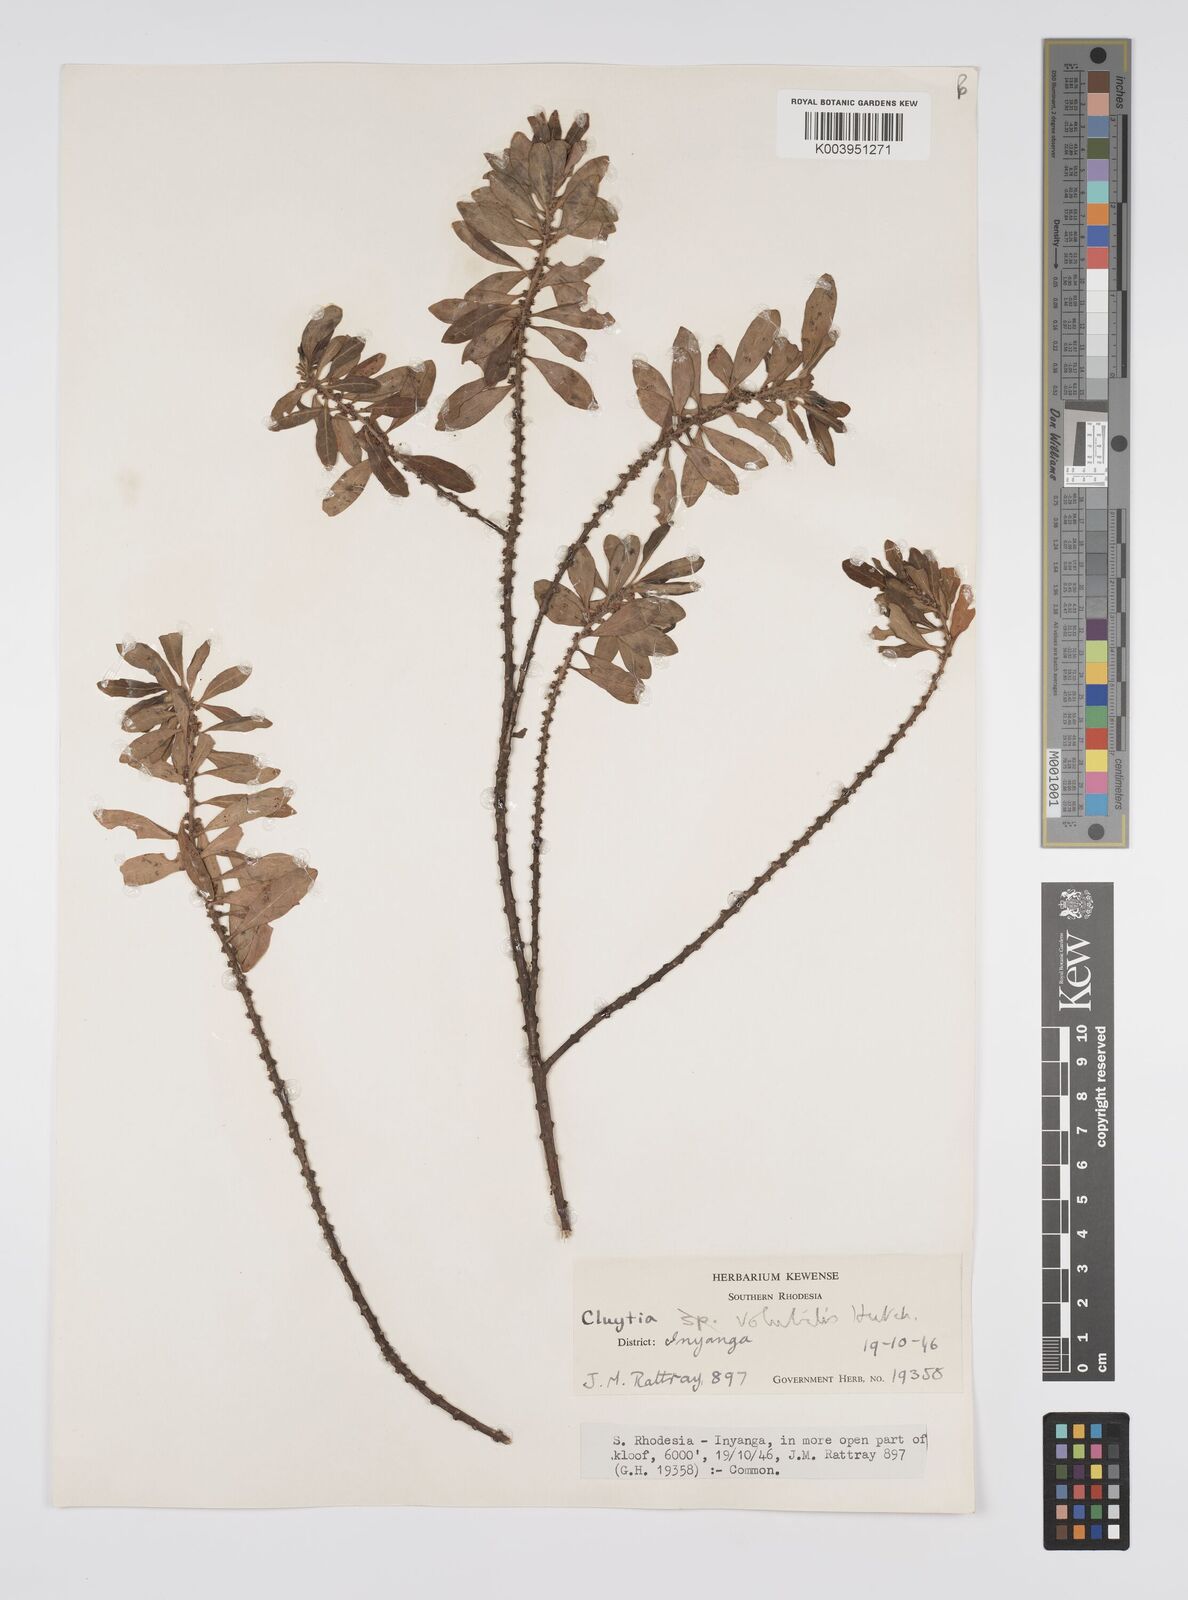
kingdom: Plantae
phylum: Tracheophyta
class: Magnoliopsida
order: Malpighiales
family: Peraceae
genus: Clutia
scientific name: Clutia
